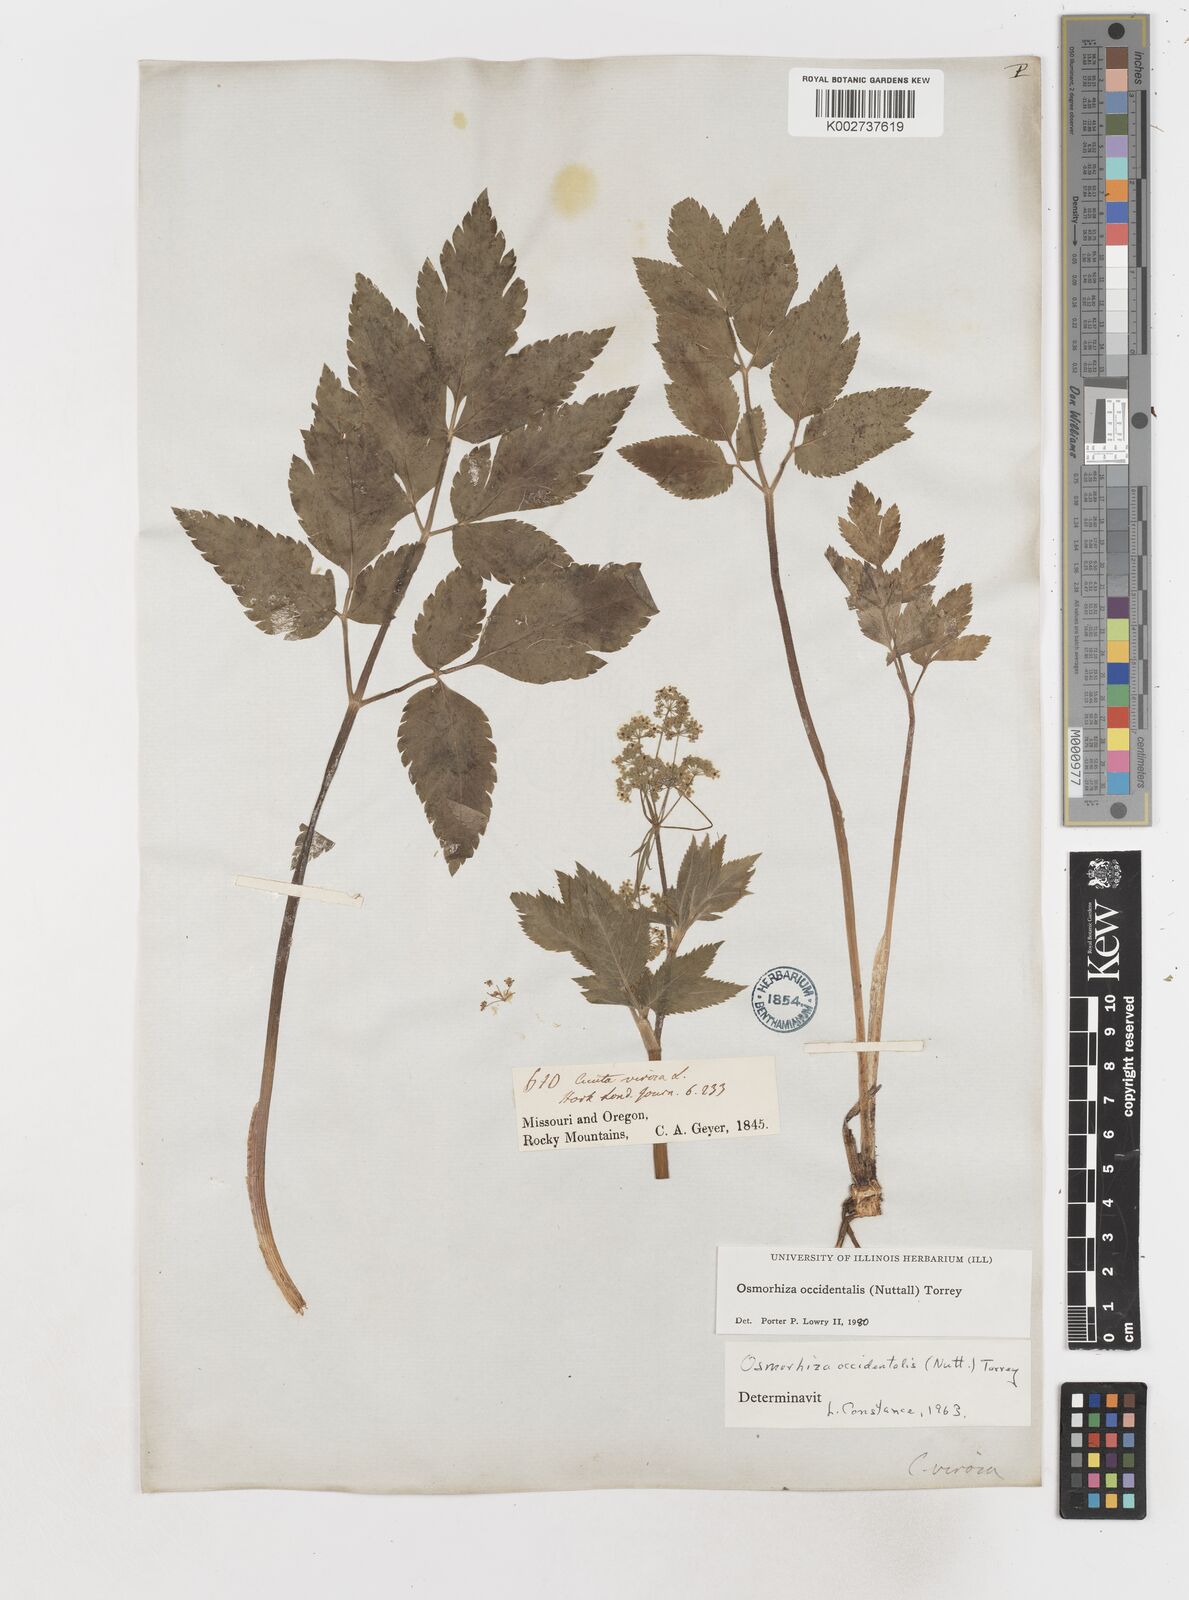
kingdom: Plantae
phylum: Tracheophyta
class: Magnoliopsida
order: Apiales
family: Apiaceae
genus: Osmorhiza
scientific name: Osmorhiza occidentalis
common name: Western sweet cicely
